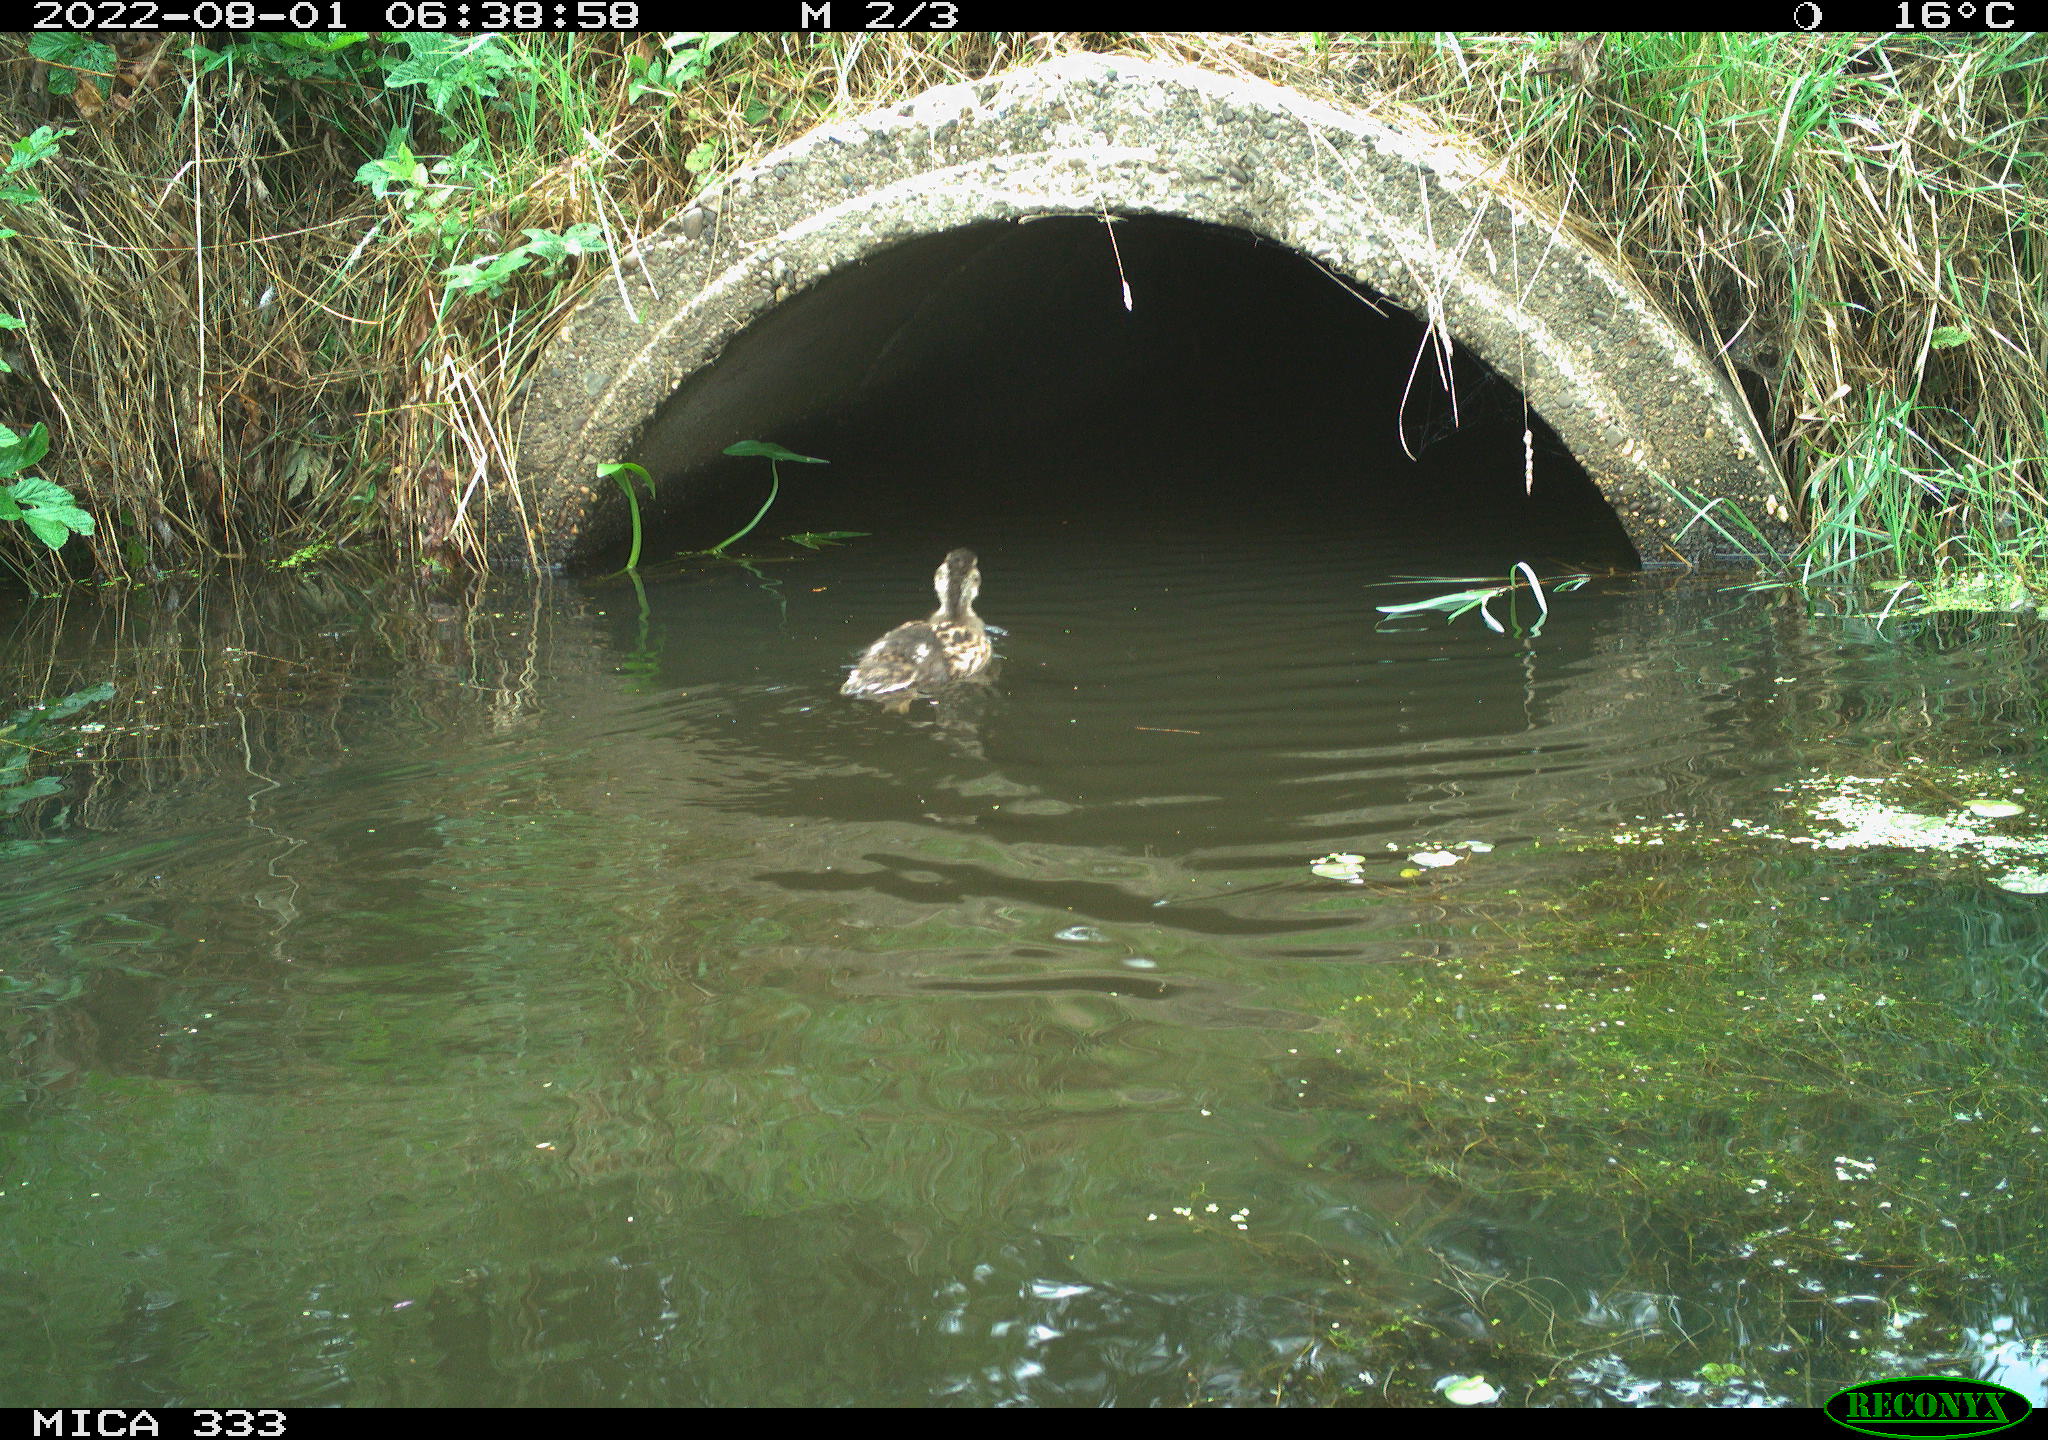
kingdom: Animalia
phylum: Chordata
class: Aves
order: Anseriformes
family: Anatidae
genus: Anas
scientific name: Anas platyrhynchos
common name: Mallard
